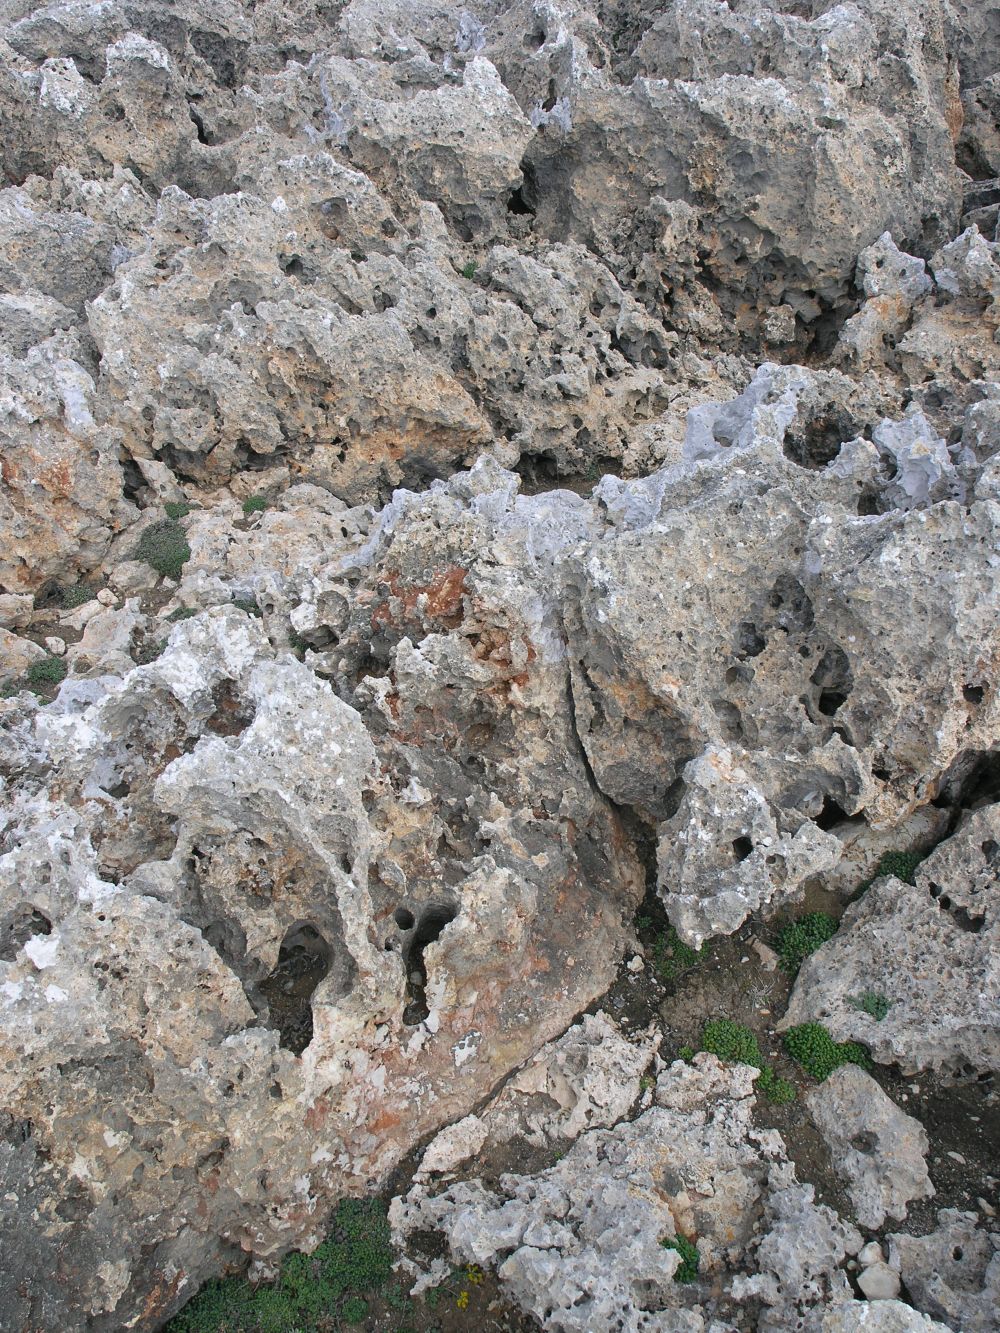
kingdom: Plantae
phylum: Tracheophyta
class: Magnoliopsida
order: Caryophyllales
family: Plumbaginaceae
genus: Limonium
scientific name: Limonium bonafei
